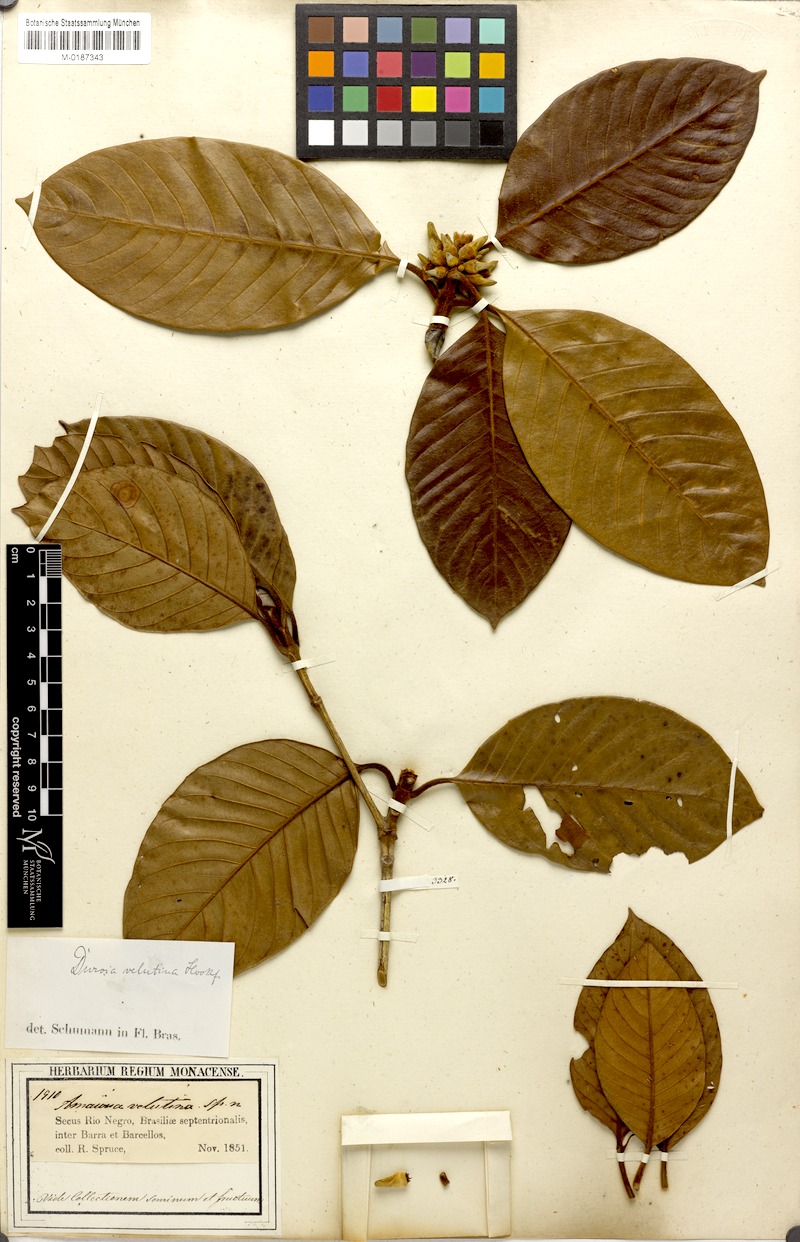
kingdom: Plantae
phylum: Tracheophyta
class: Magnoliopsida
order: Gentianales
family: Rubiaceae
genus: Duroia
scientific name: Duroia velutina
